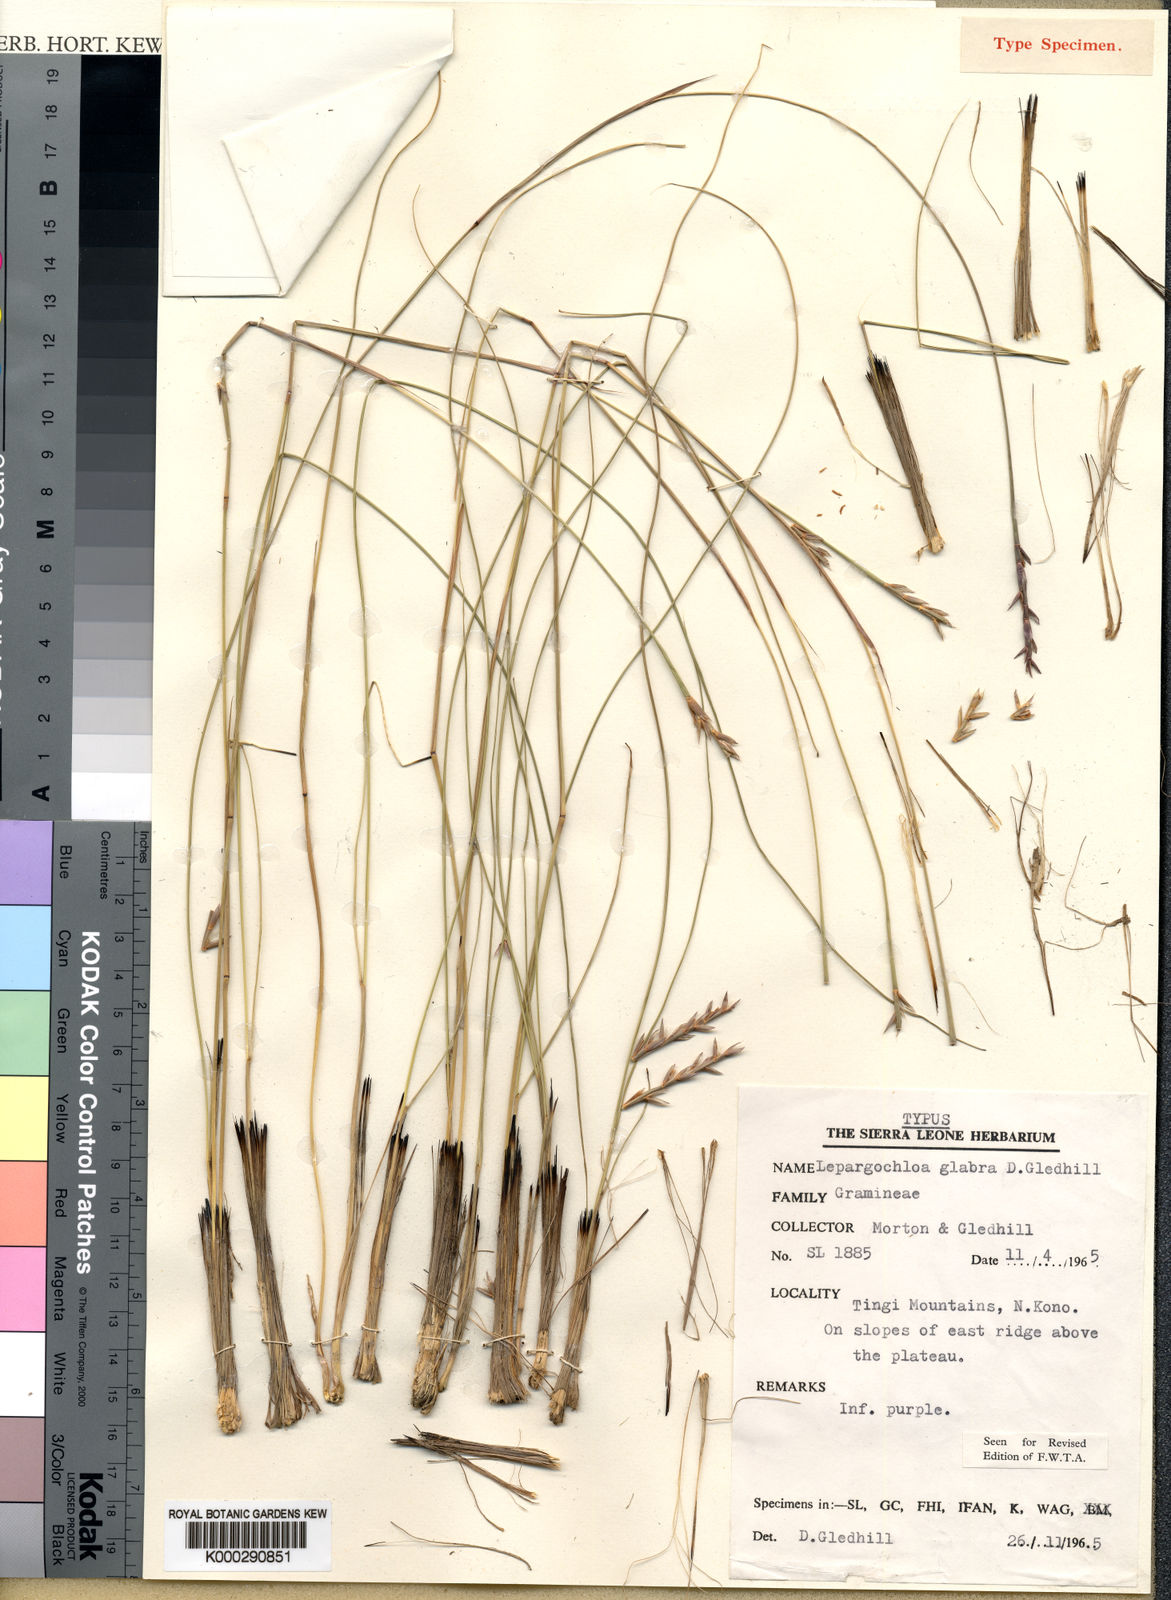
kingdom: Plantae
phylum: Tracheophyta
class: Liliopsida
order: Poales
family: Poaceae
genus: Rhytachne
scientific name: Rhytachne glabra
